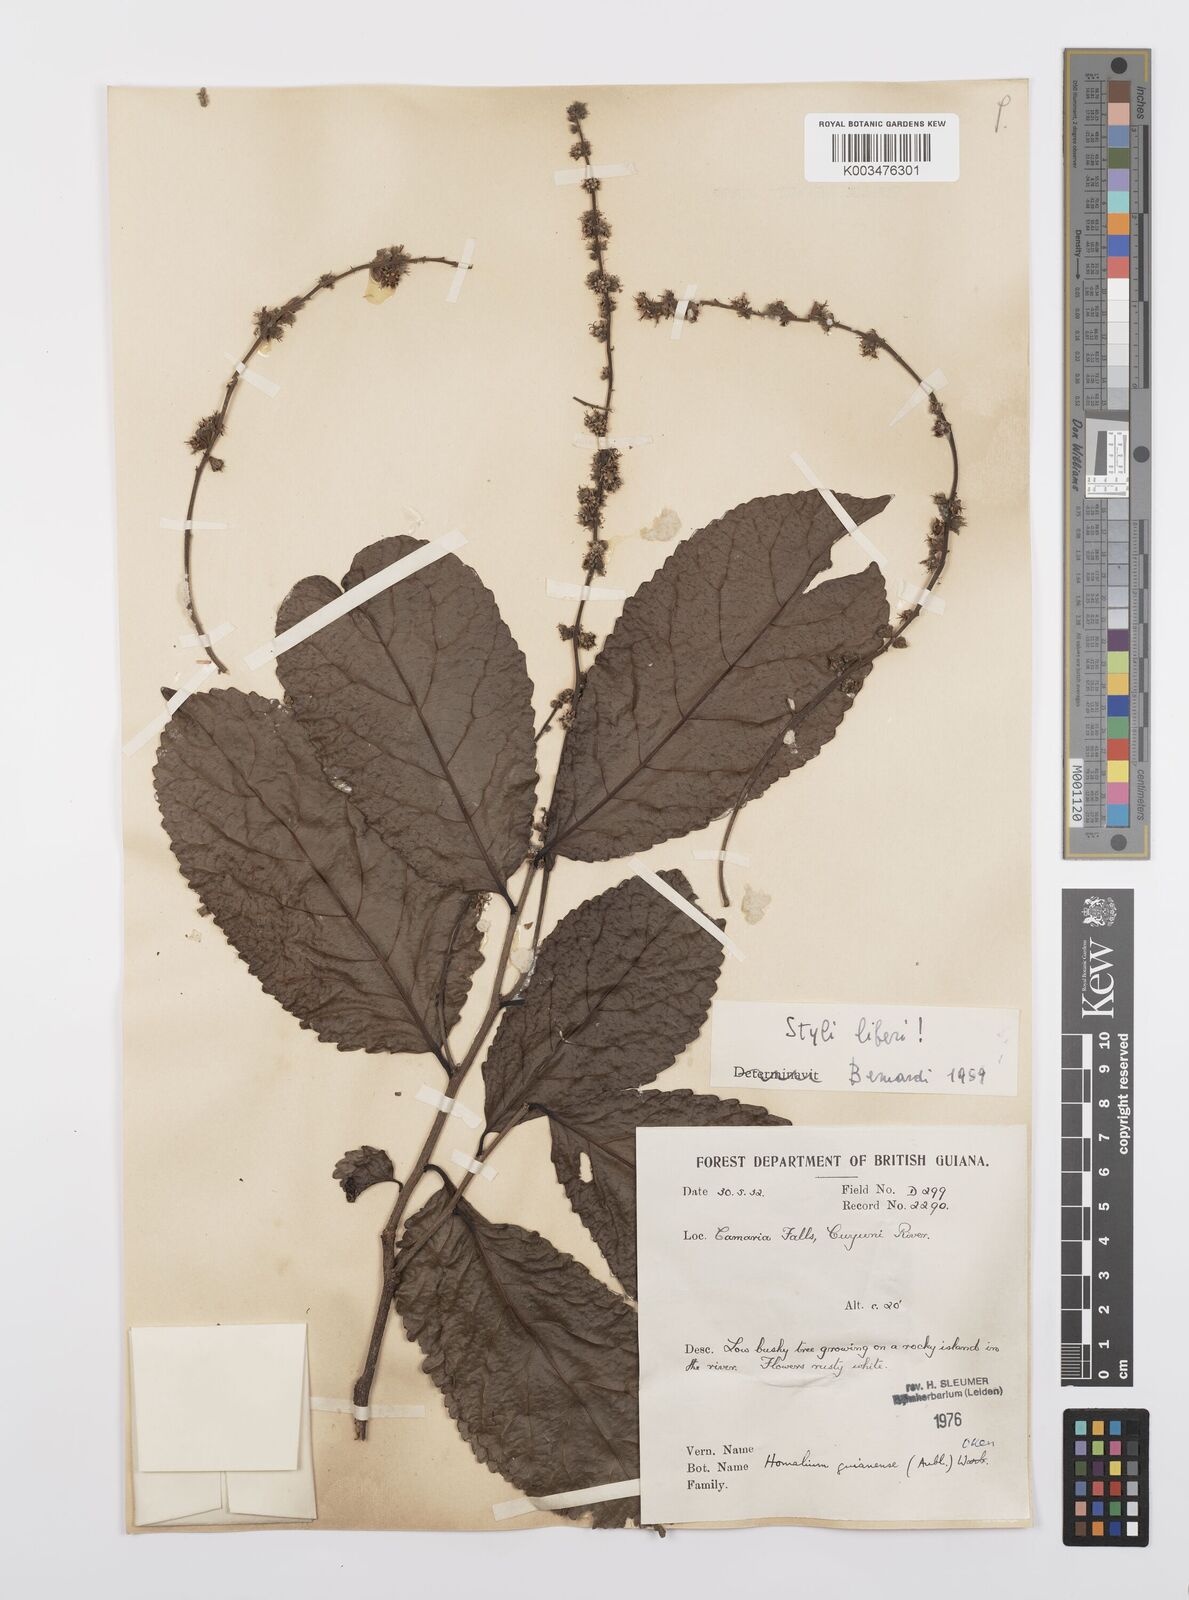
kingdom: Plantae
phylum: Tracheophyta
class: Magnoliopsida
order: Malpighiales
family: Salicaceae
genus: Homalium
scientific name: Homalium guianense
